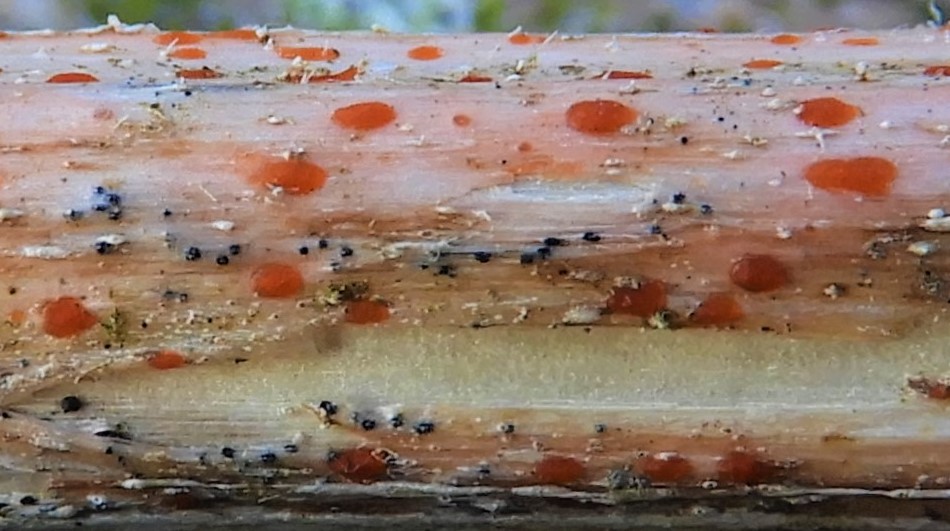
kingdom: Fungi
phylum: Ascomycota
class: Leotiomycetes
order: Helotiales
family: Calloriaceae
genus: Calloria
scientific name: Calloria urticae
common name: nælde-orangeskive
